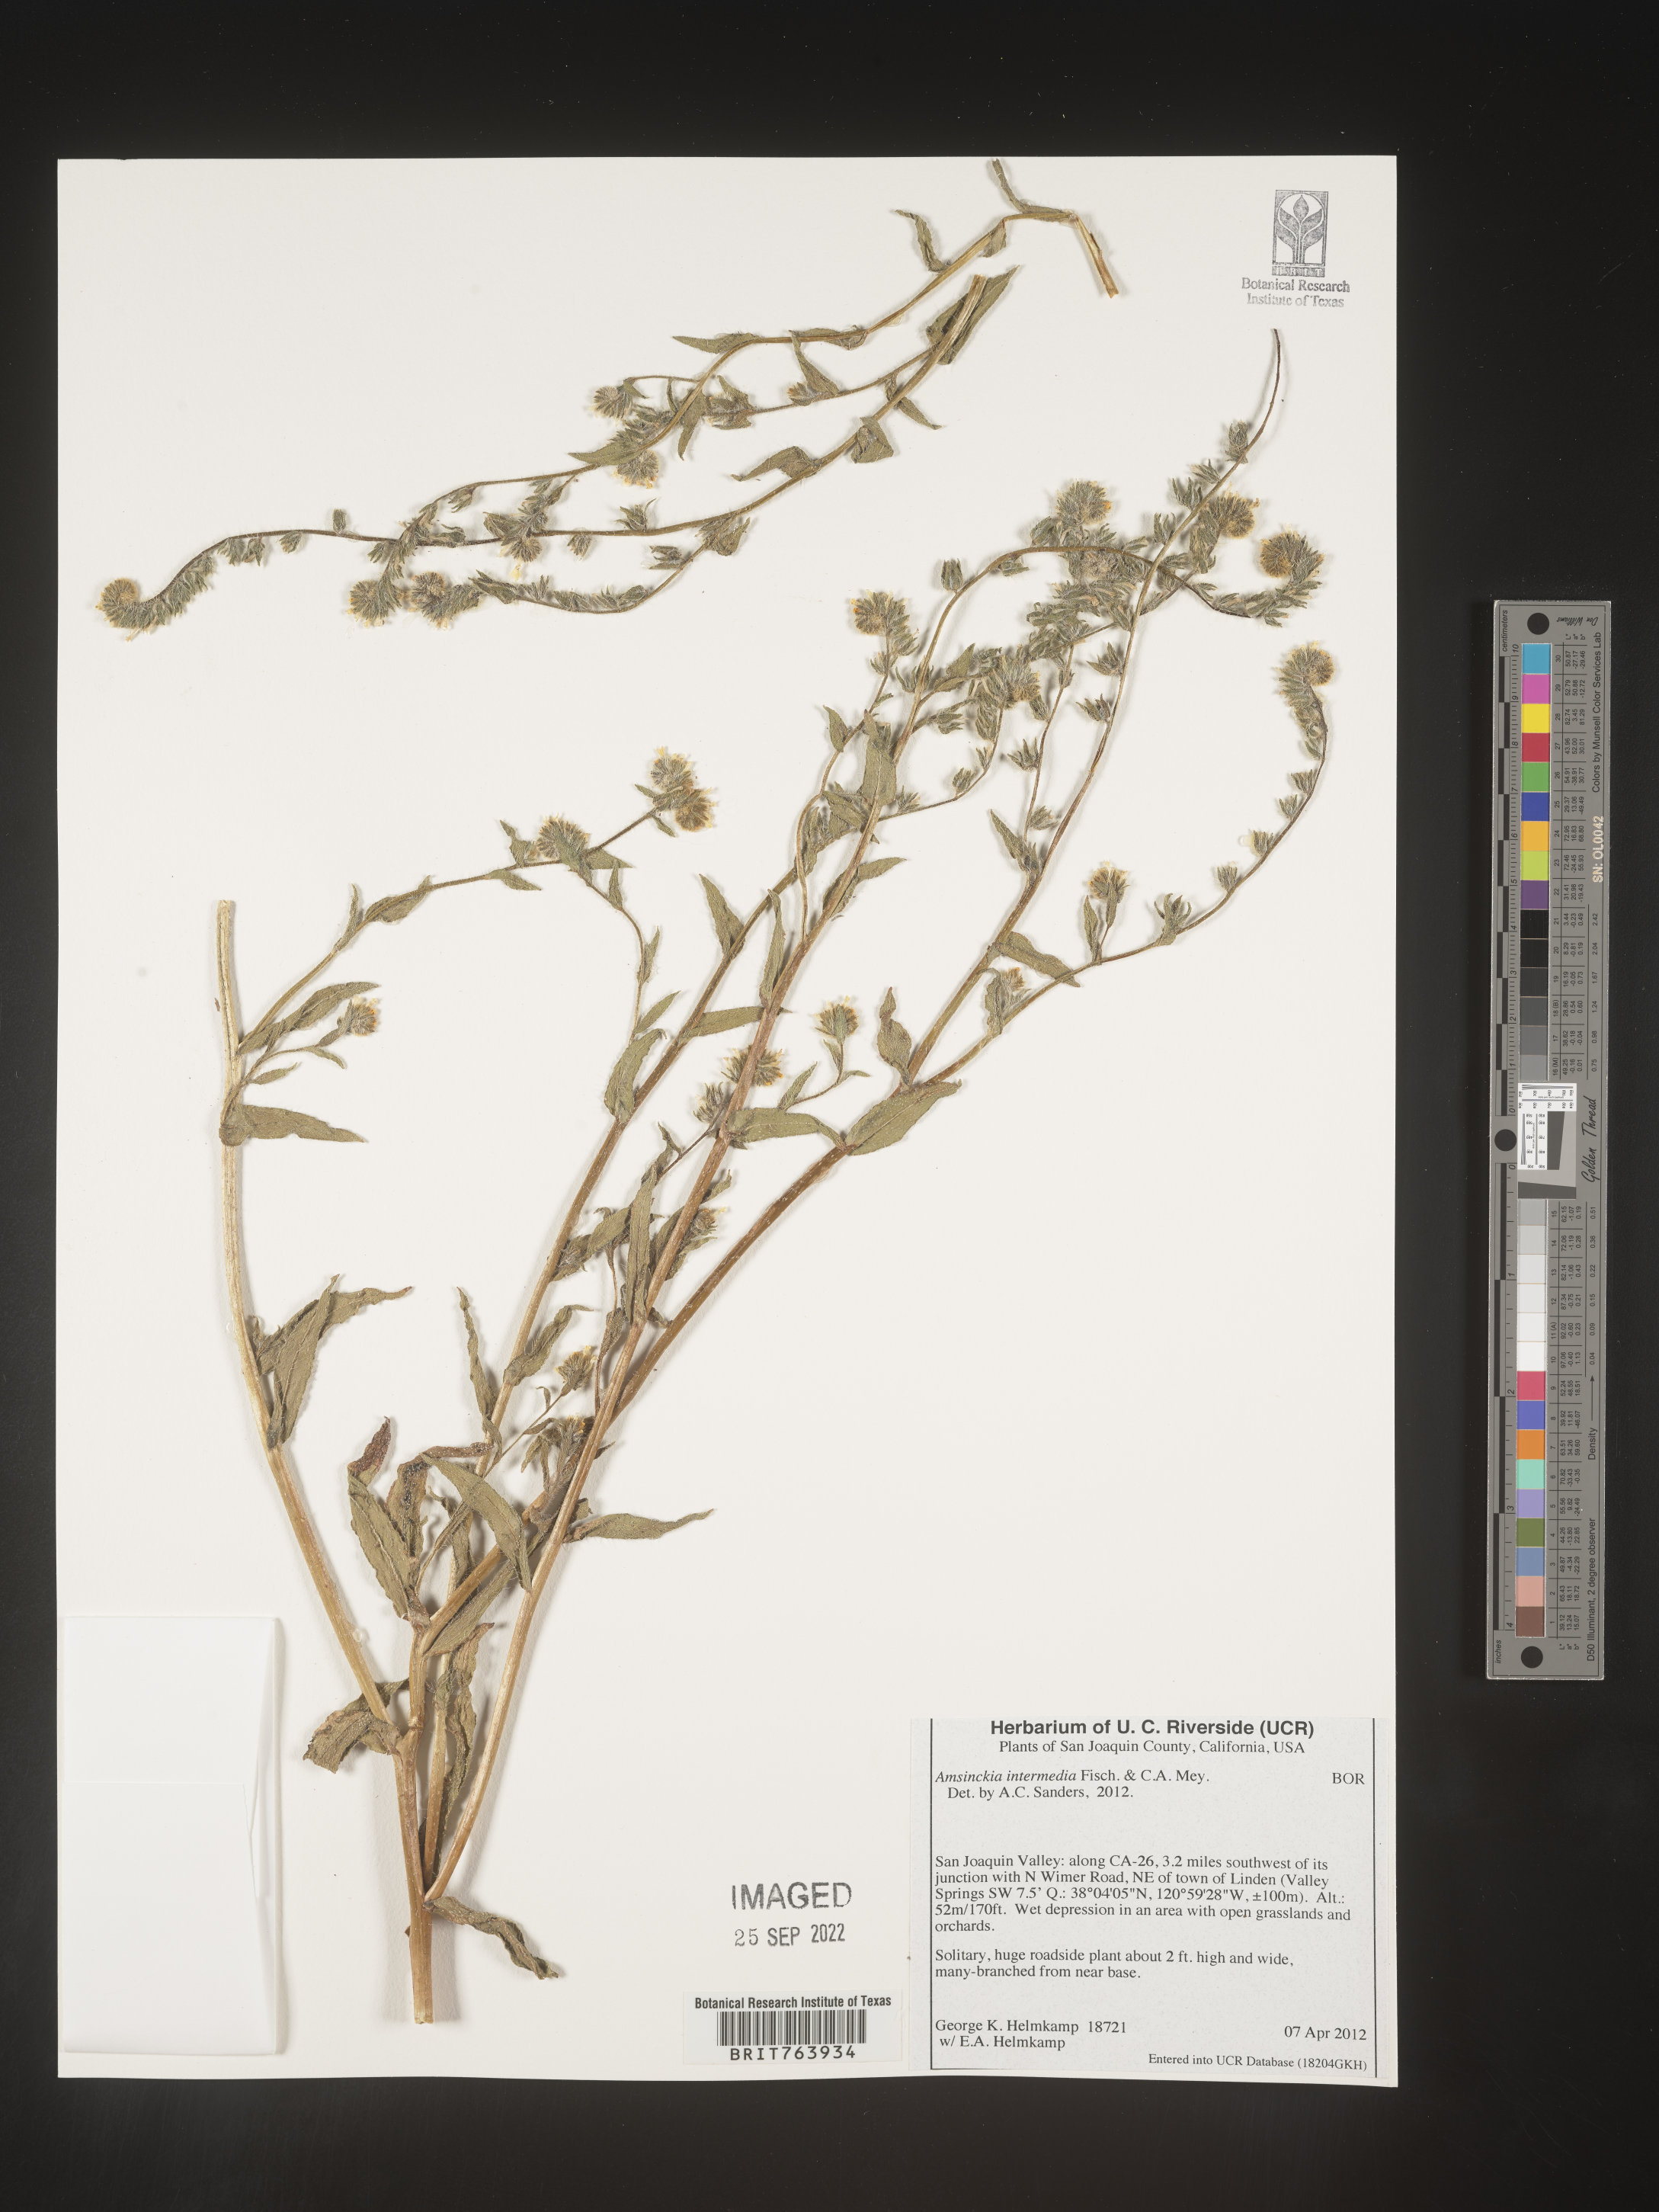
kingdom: Plantae
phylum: Tracheophyta
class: Magnoliopsida
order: Boraginales
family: Boraginaceae
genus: Amsinckia
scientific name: Amsinckia
